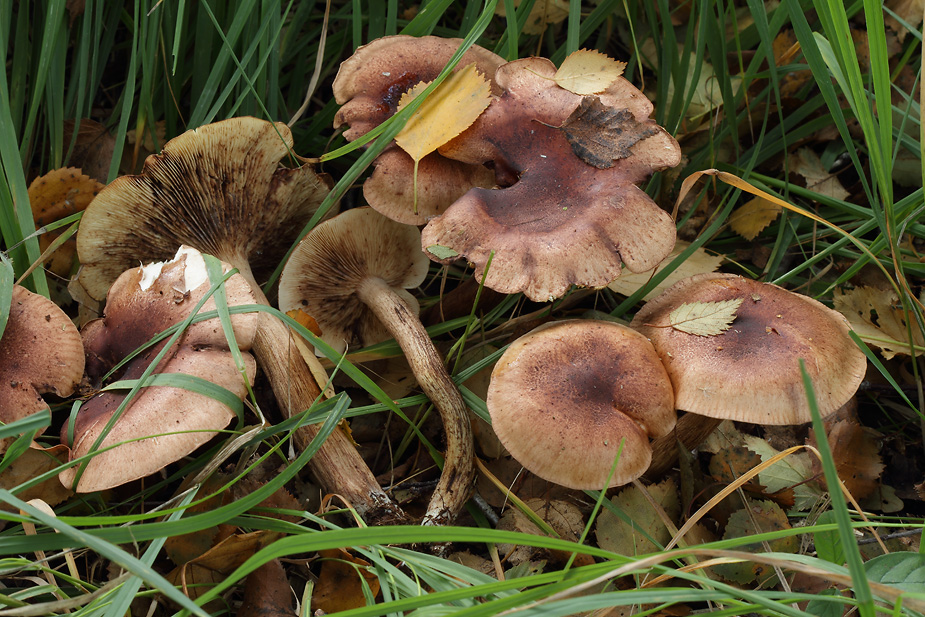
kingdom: Fungi
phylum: Basidiomycota
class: Agaricomycetes
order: Agaricales
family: Tricholomataceae
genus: Tricholoma
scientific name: Tricholoma fulvum
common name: birke-ridderhat
